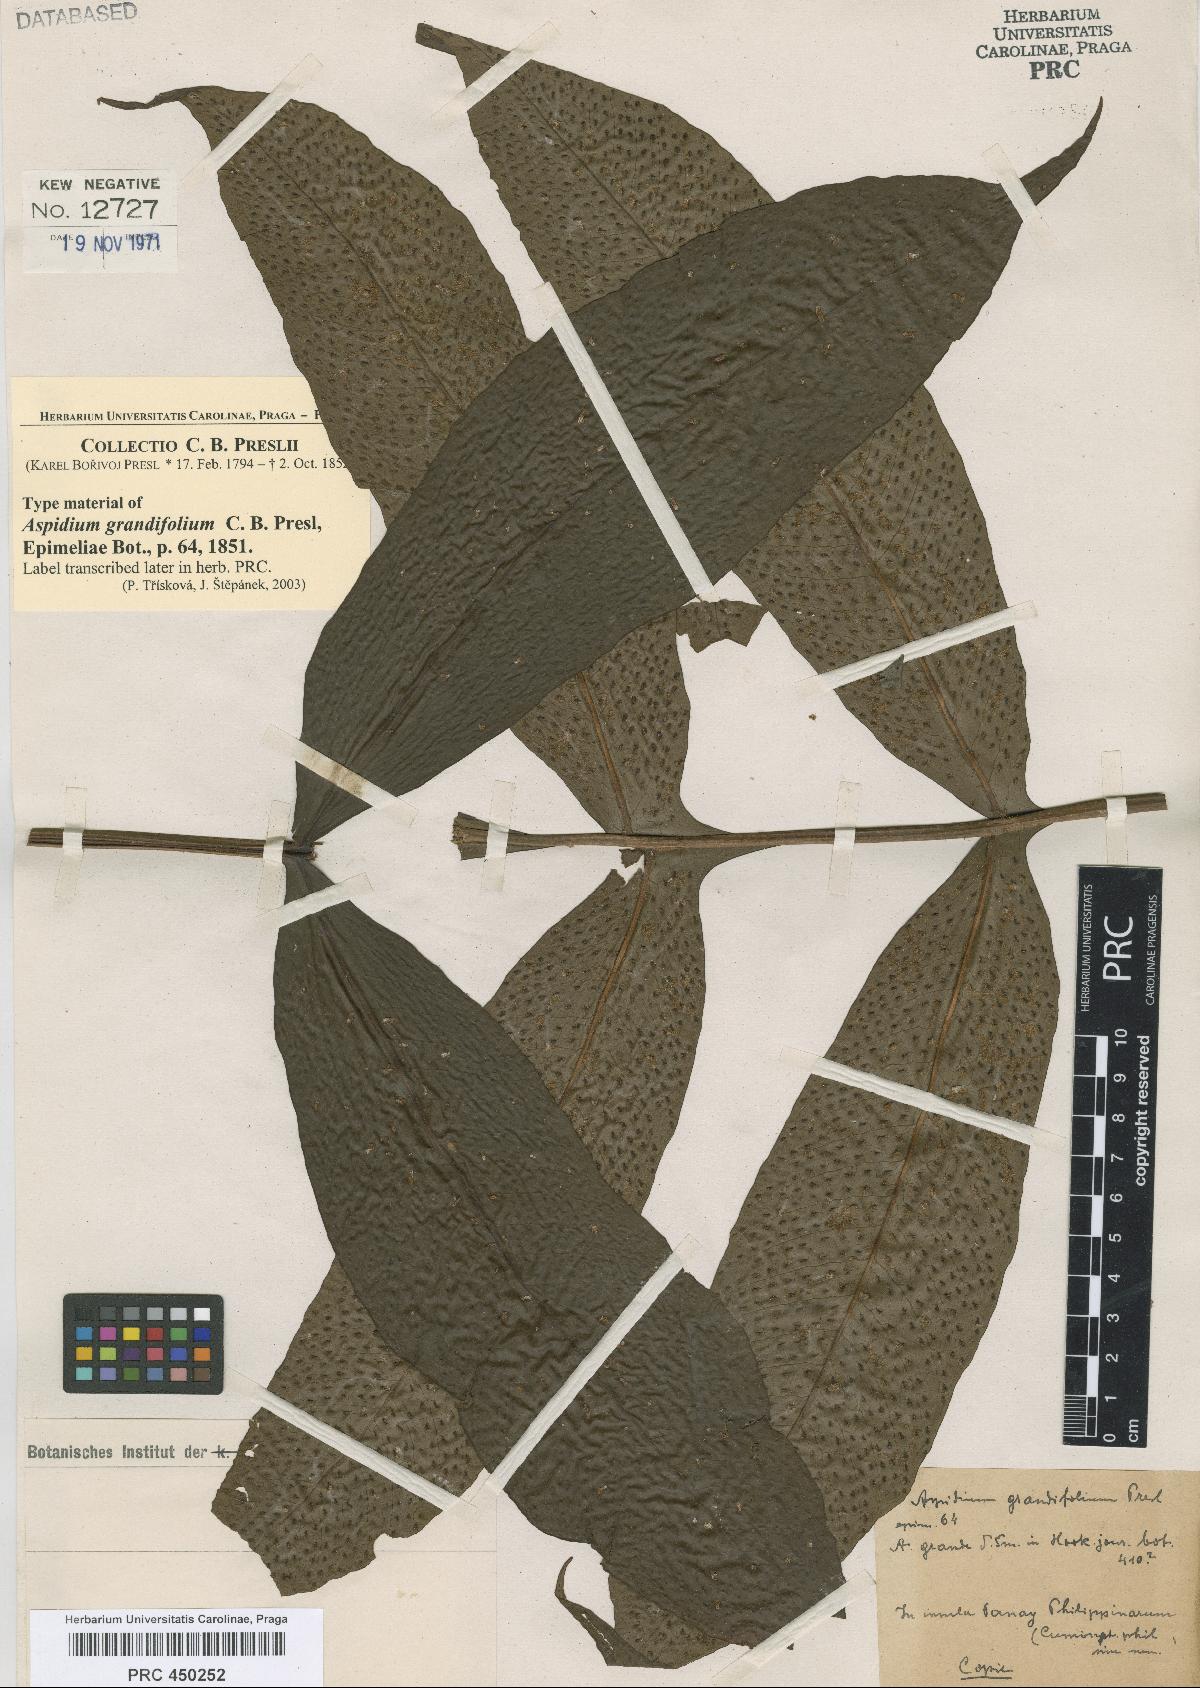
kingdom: Plantae
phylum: Tracheophyta
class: Polypodiopsida
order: Polypodiales
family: Tectariaceae
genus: Tectaria
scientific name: Tectaria crenata
